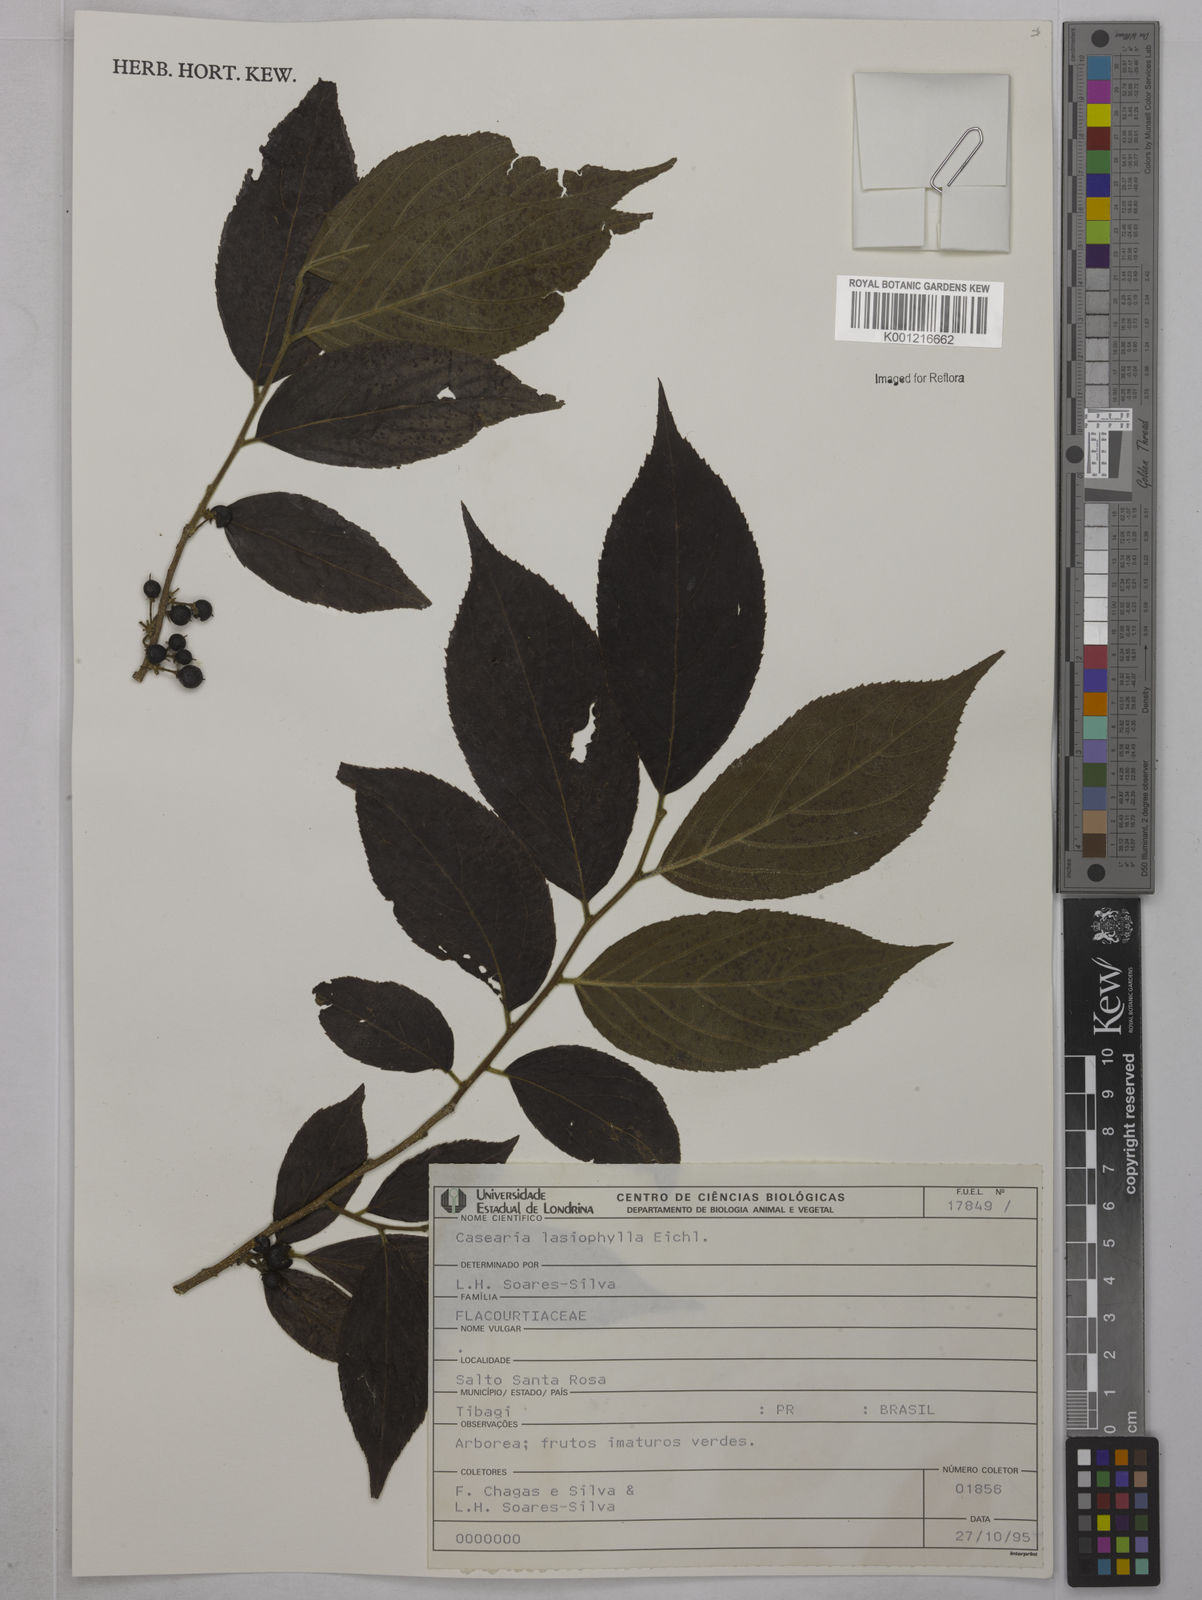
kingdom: Plantae
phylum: Tracheophyta
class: Magnoliopsida
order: Malpighiales
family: Salicaceae
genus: Casearia
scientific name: Casearia lasiophylla
